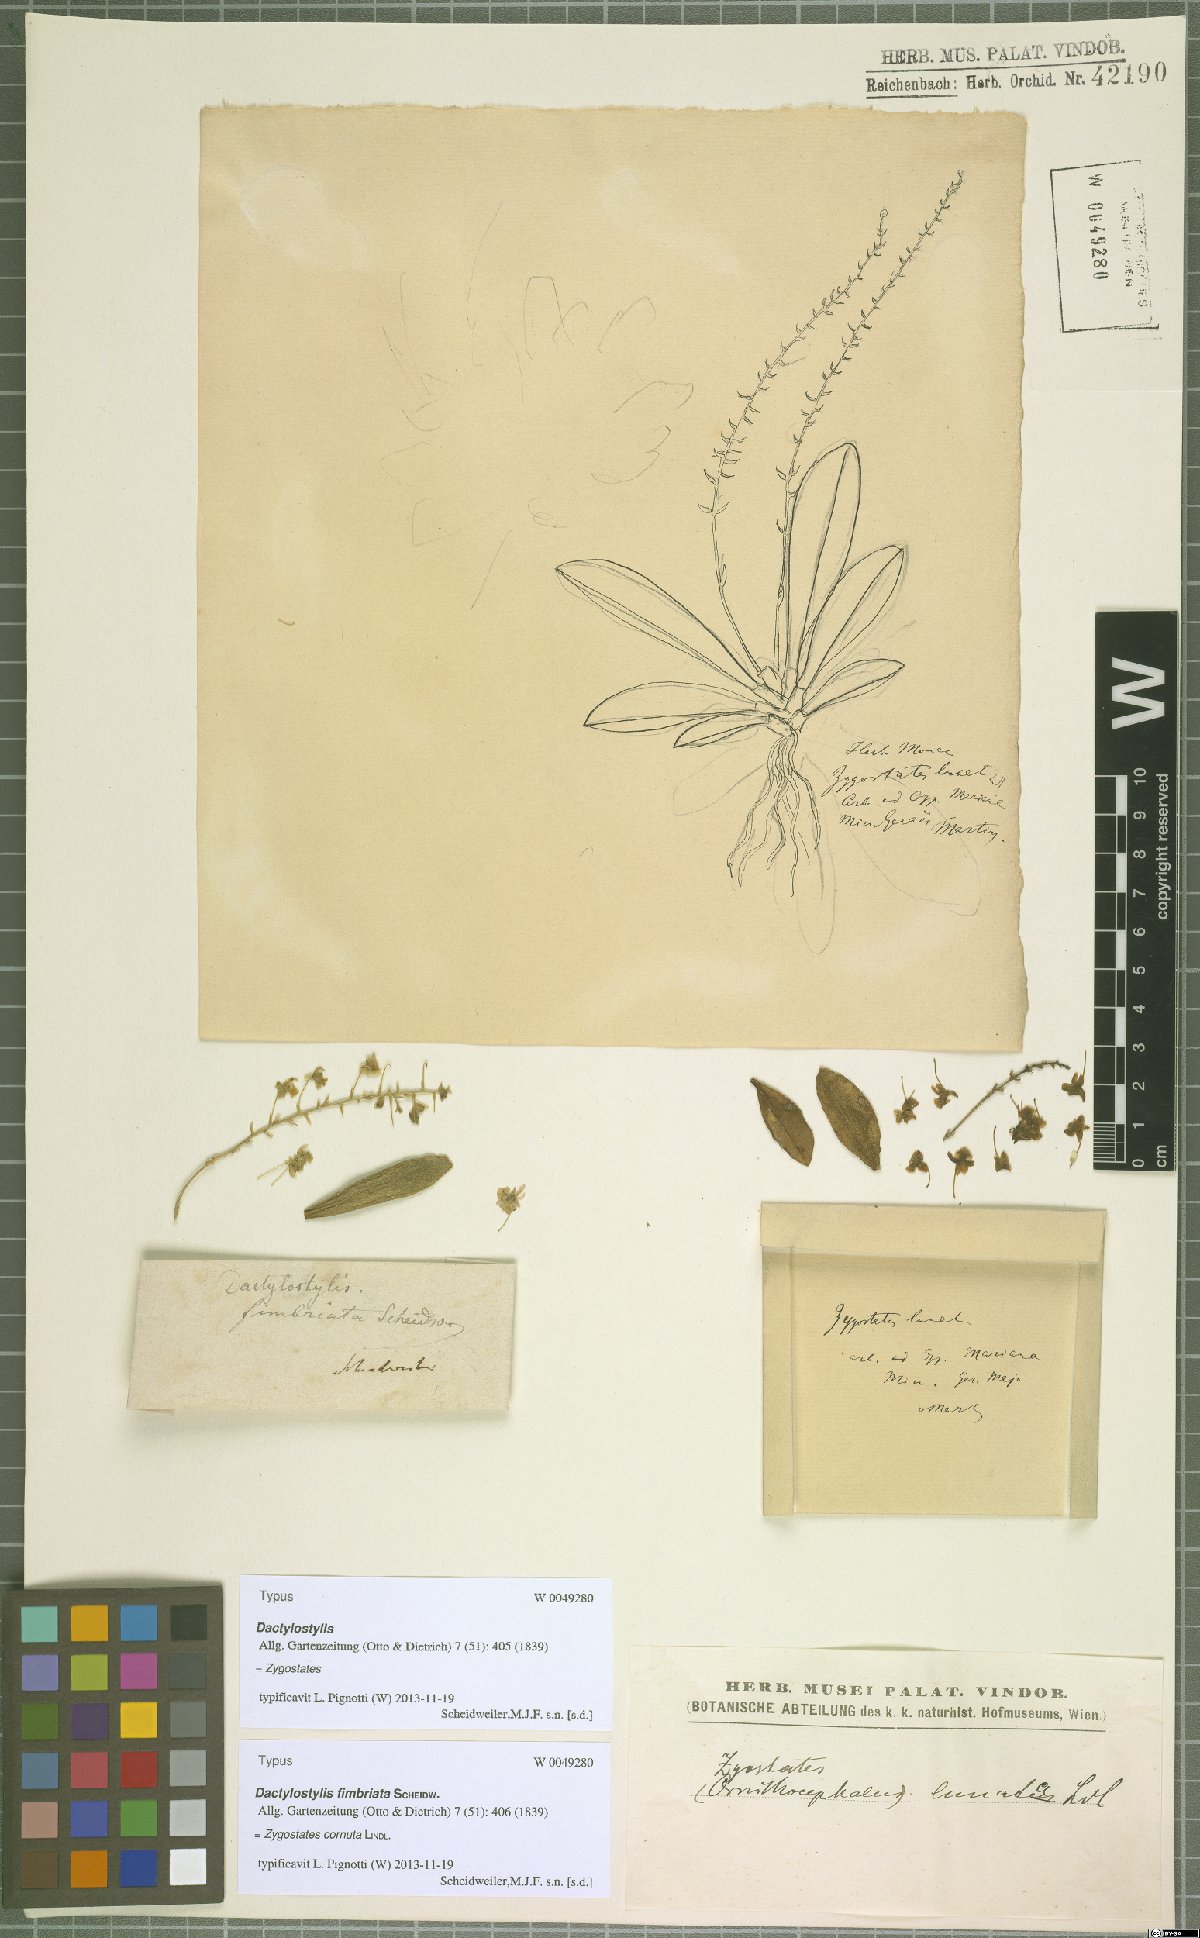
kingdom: Plantae
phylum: Tracheophyta
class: Liliopsida
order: Asparagales
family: Orchidaceae
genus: Zygostates
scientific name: Zygostates lunata
